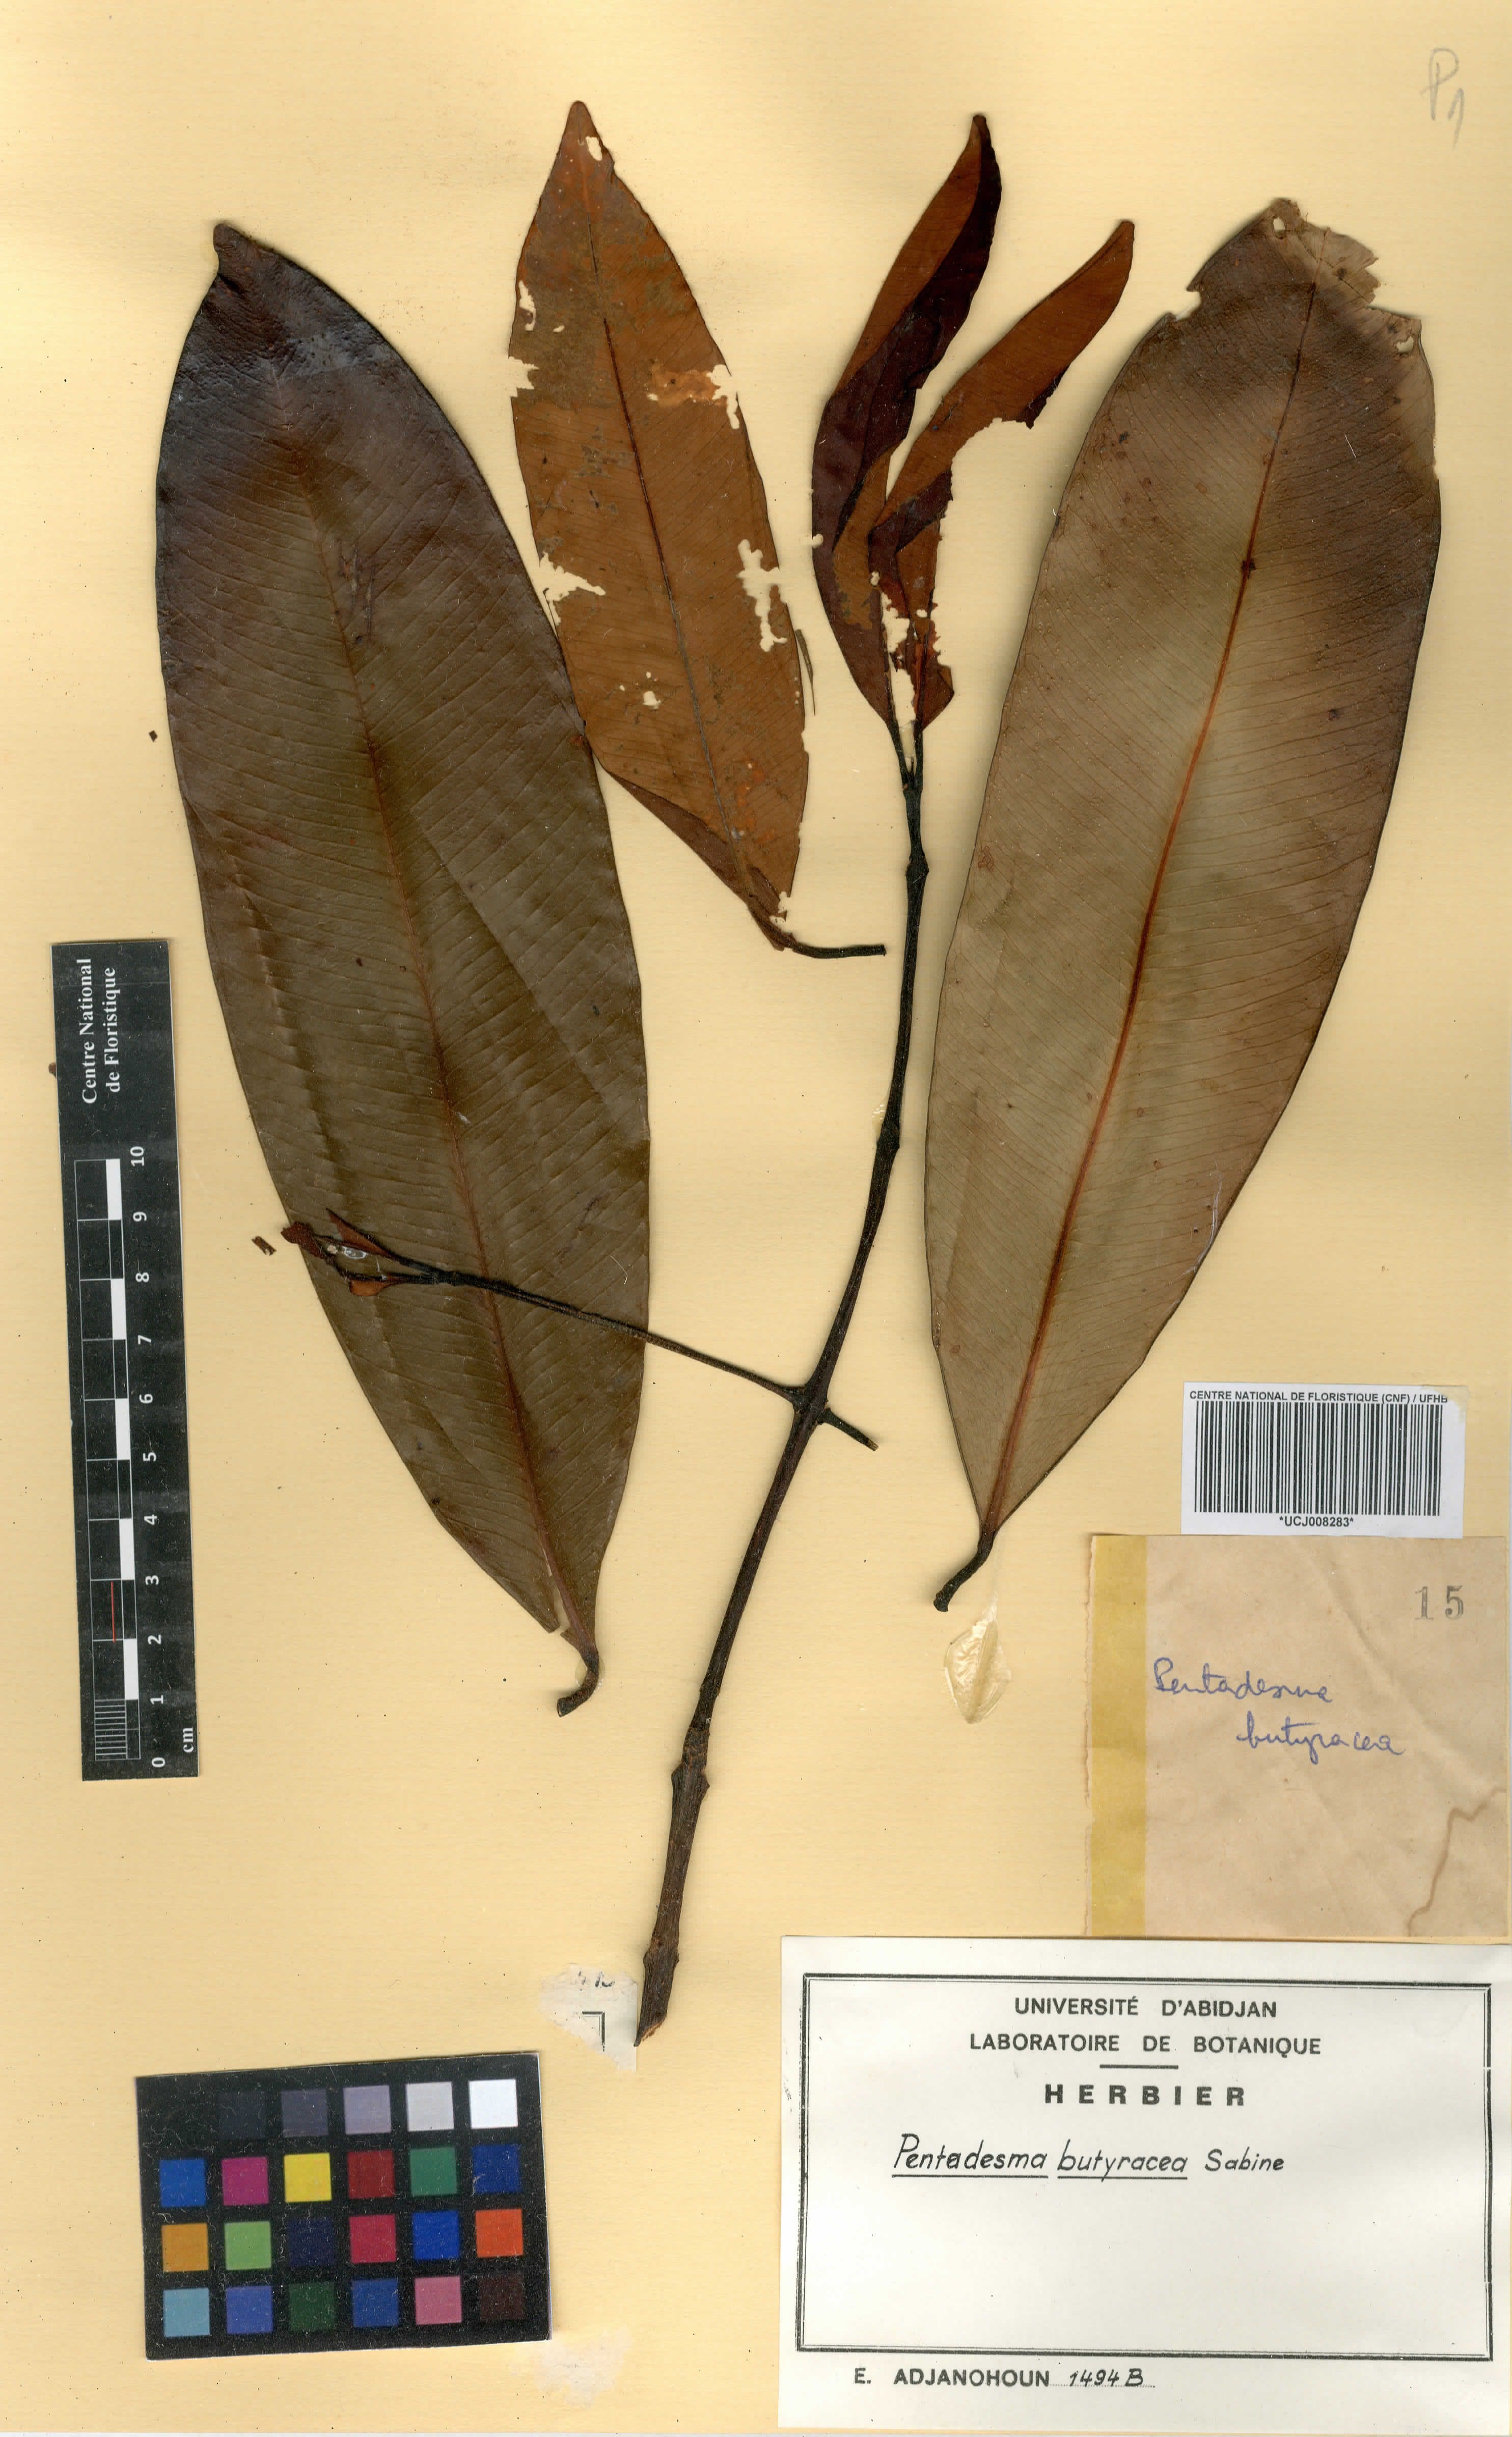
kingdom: Plantae
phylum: Tracheophyta
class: Magnoliopsida
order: Malpighiales
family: Clusiaceae
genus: Pentadesma
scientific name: Pentadesma butyracea
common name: Buttertree
